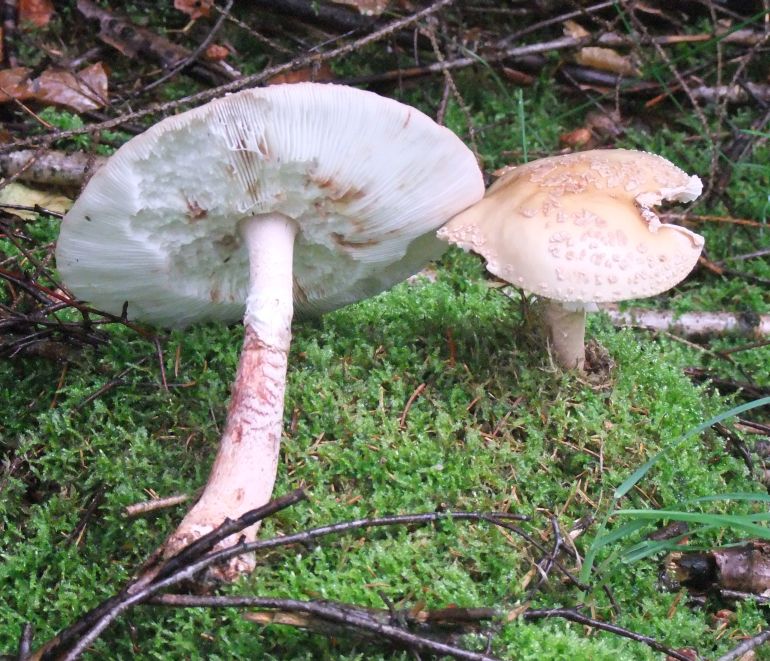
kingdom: Fungi
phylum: Basidiomycota
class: Agaricomycetes
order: Agaricales
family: Amanitaceae
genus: Amanita
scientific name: Amanita rubescens
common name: rødmende fluesvamp
